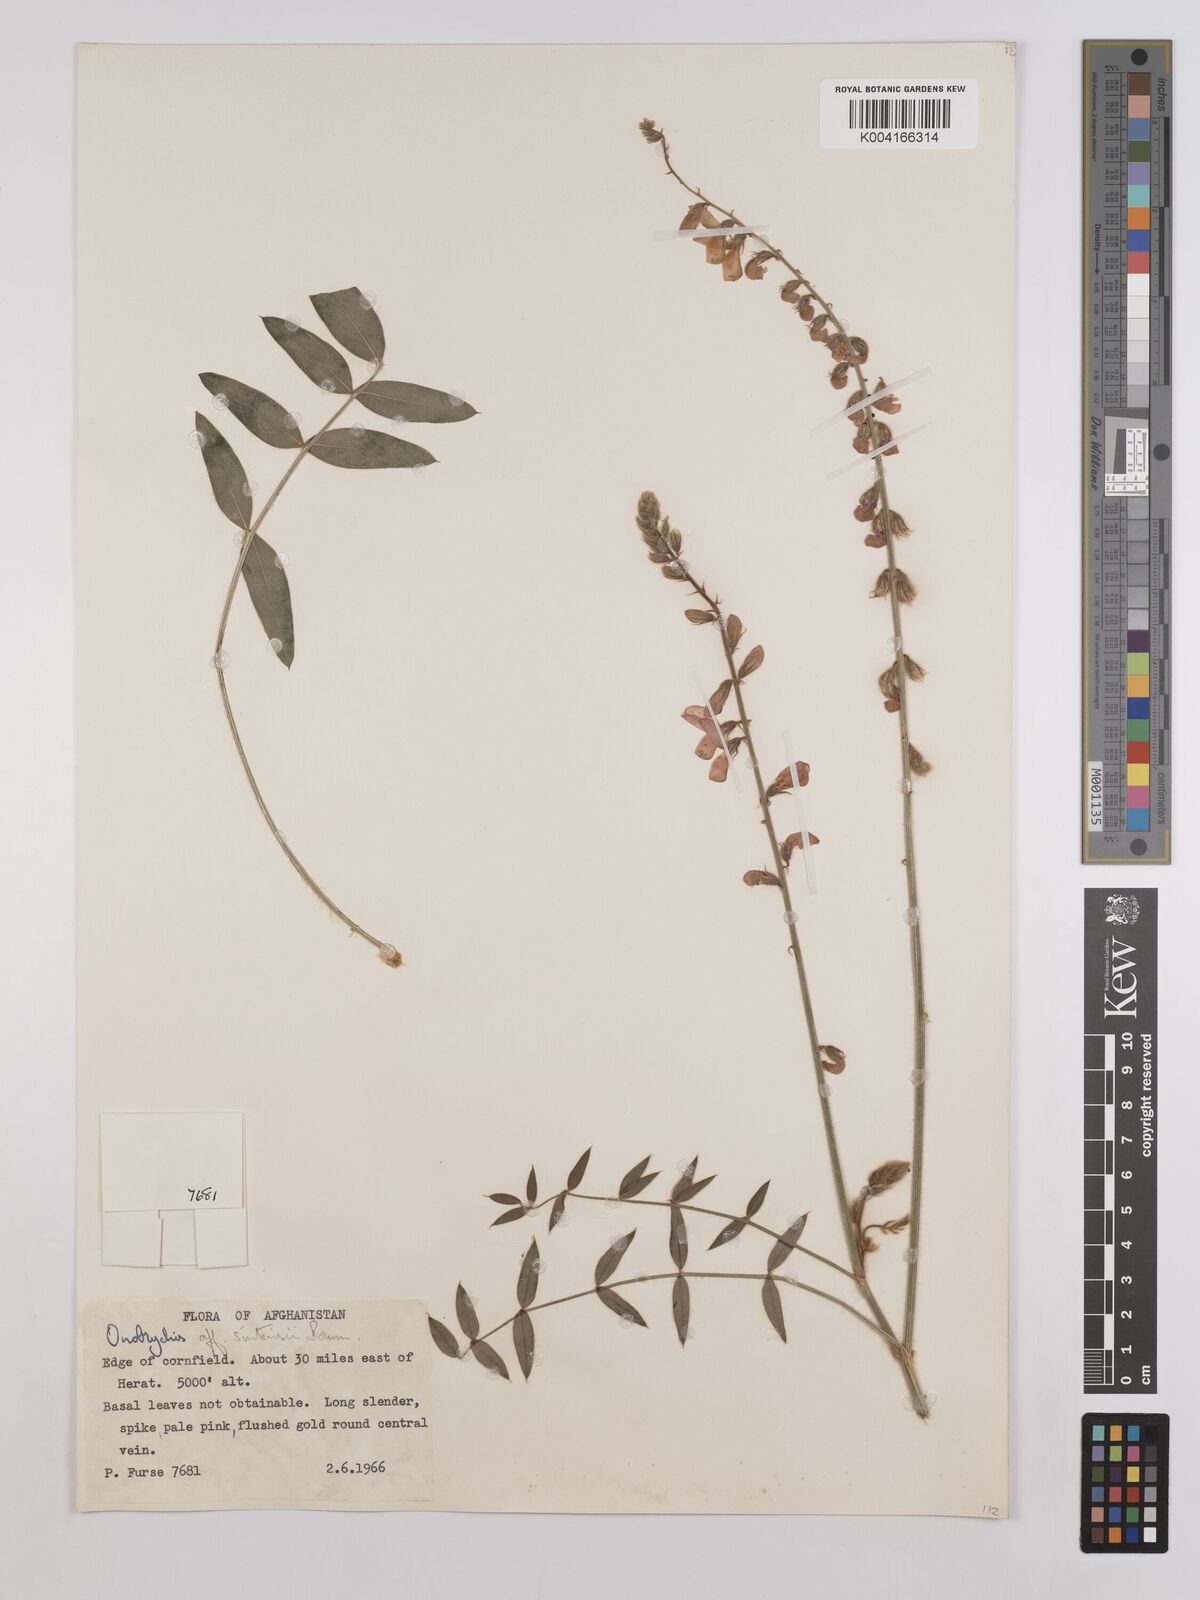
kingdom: Plantae
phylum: Tracheophyta
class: Magnoliopsida
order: Fabales
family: Fabaceae
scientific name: Fabaceae
